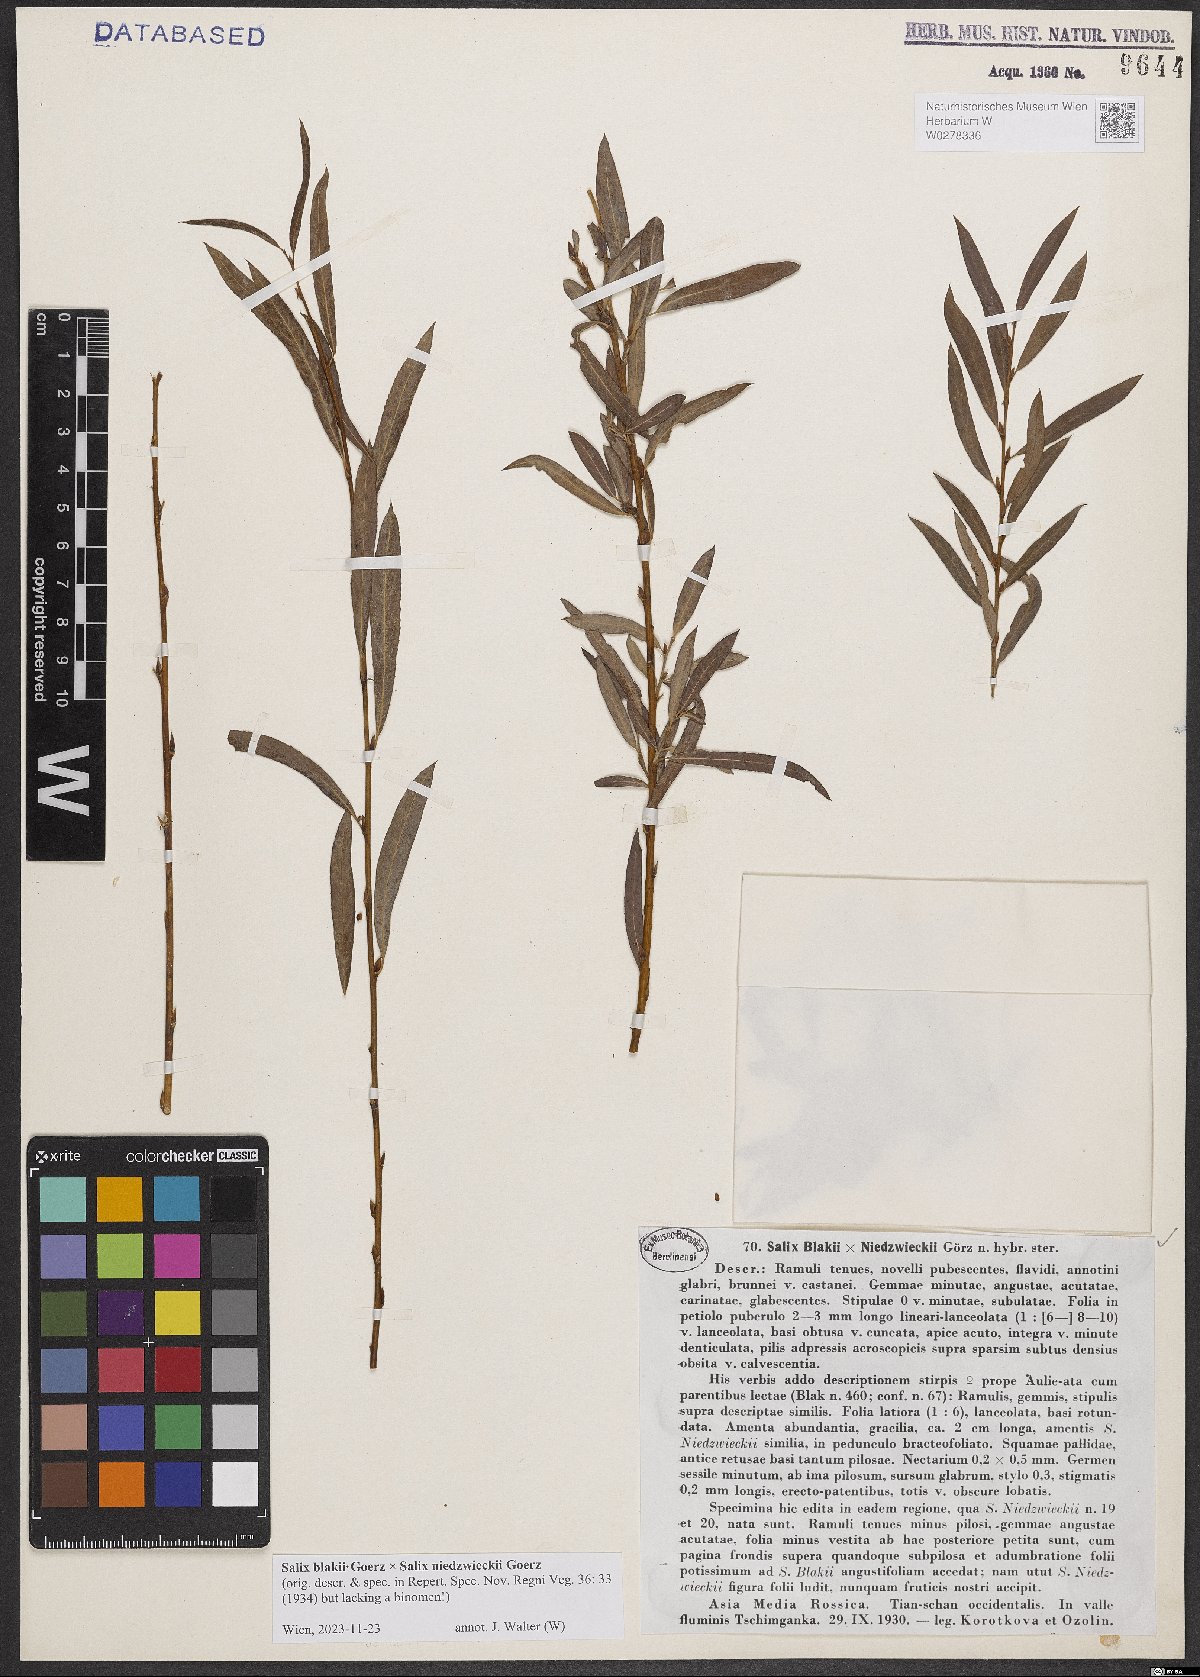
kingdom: Plantae
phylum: Tracheophyta
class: Magnoliopsida
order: Malpighiales
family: Salicaceae
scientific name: Salicaceae
